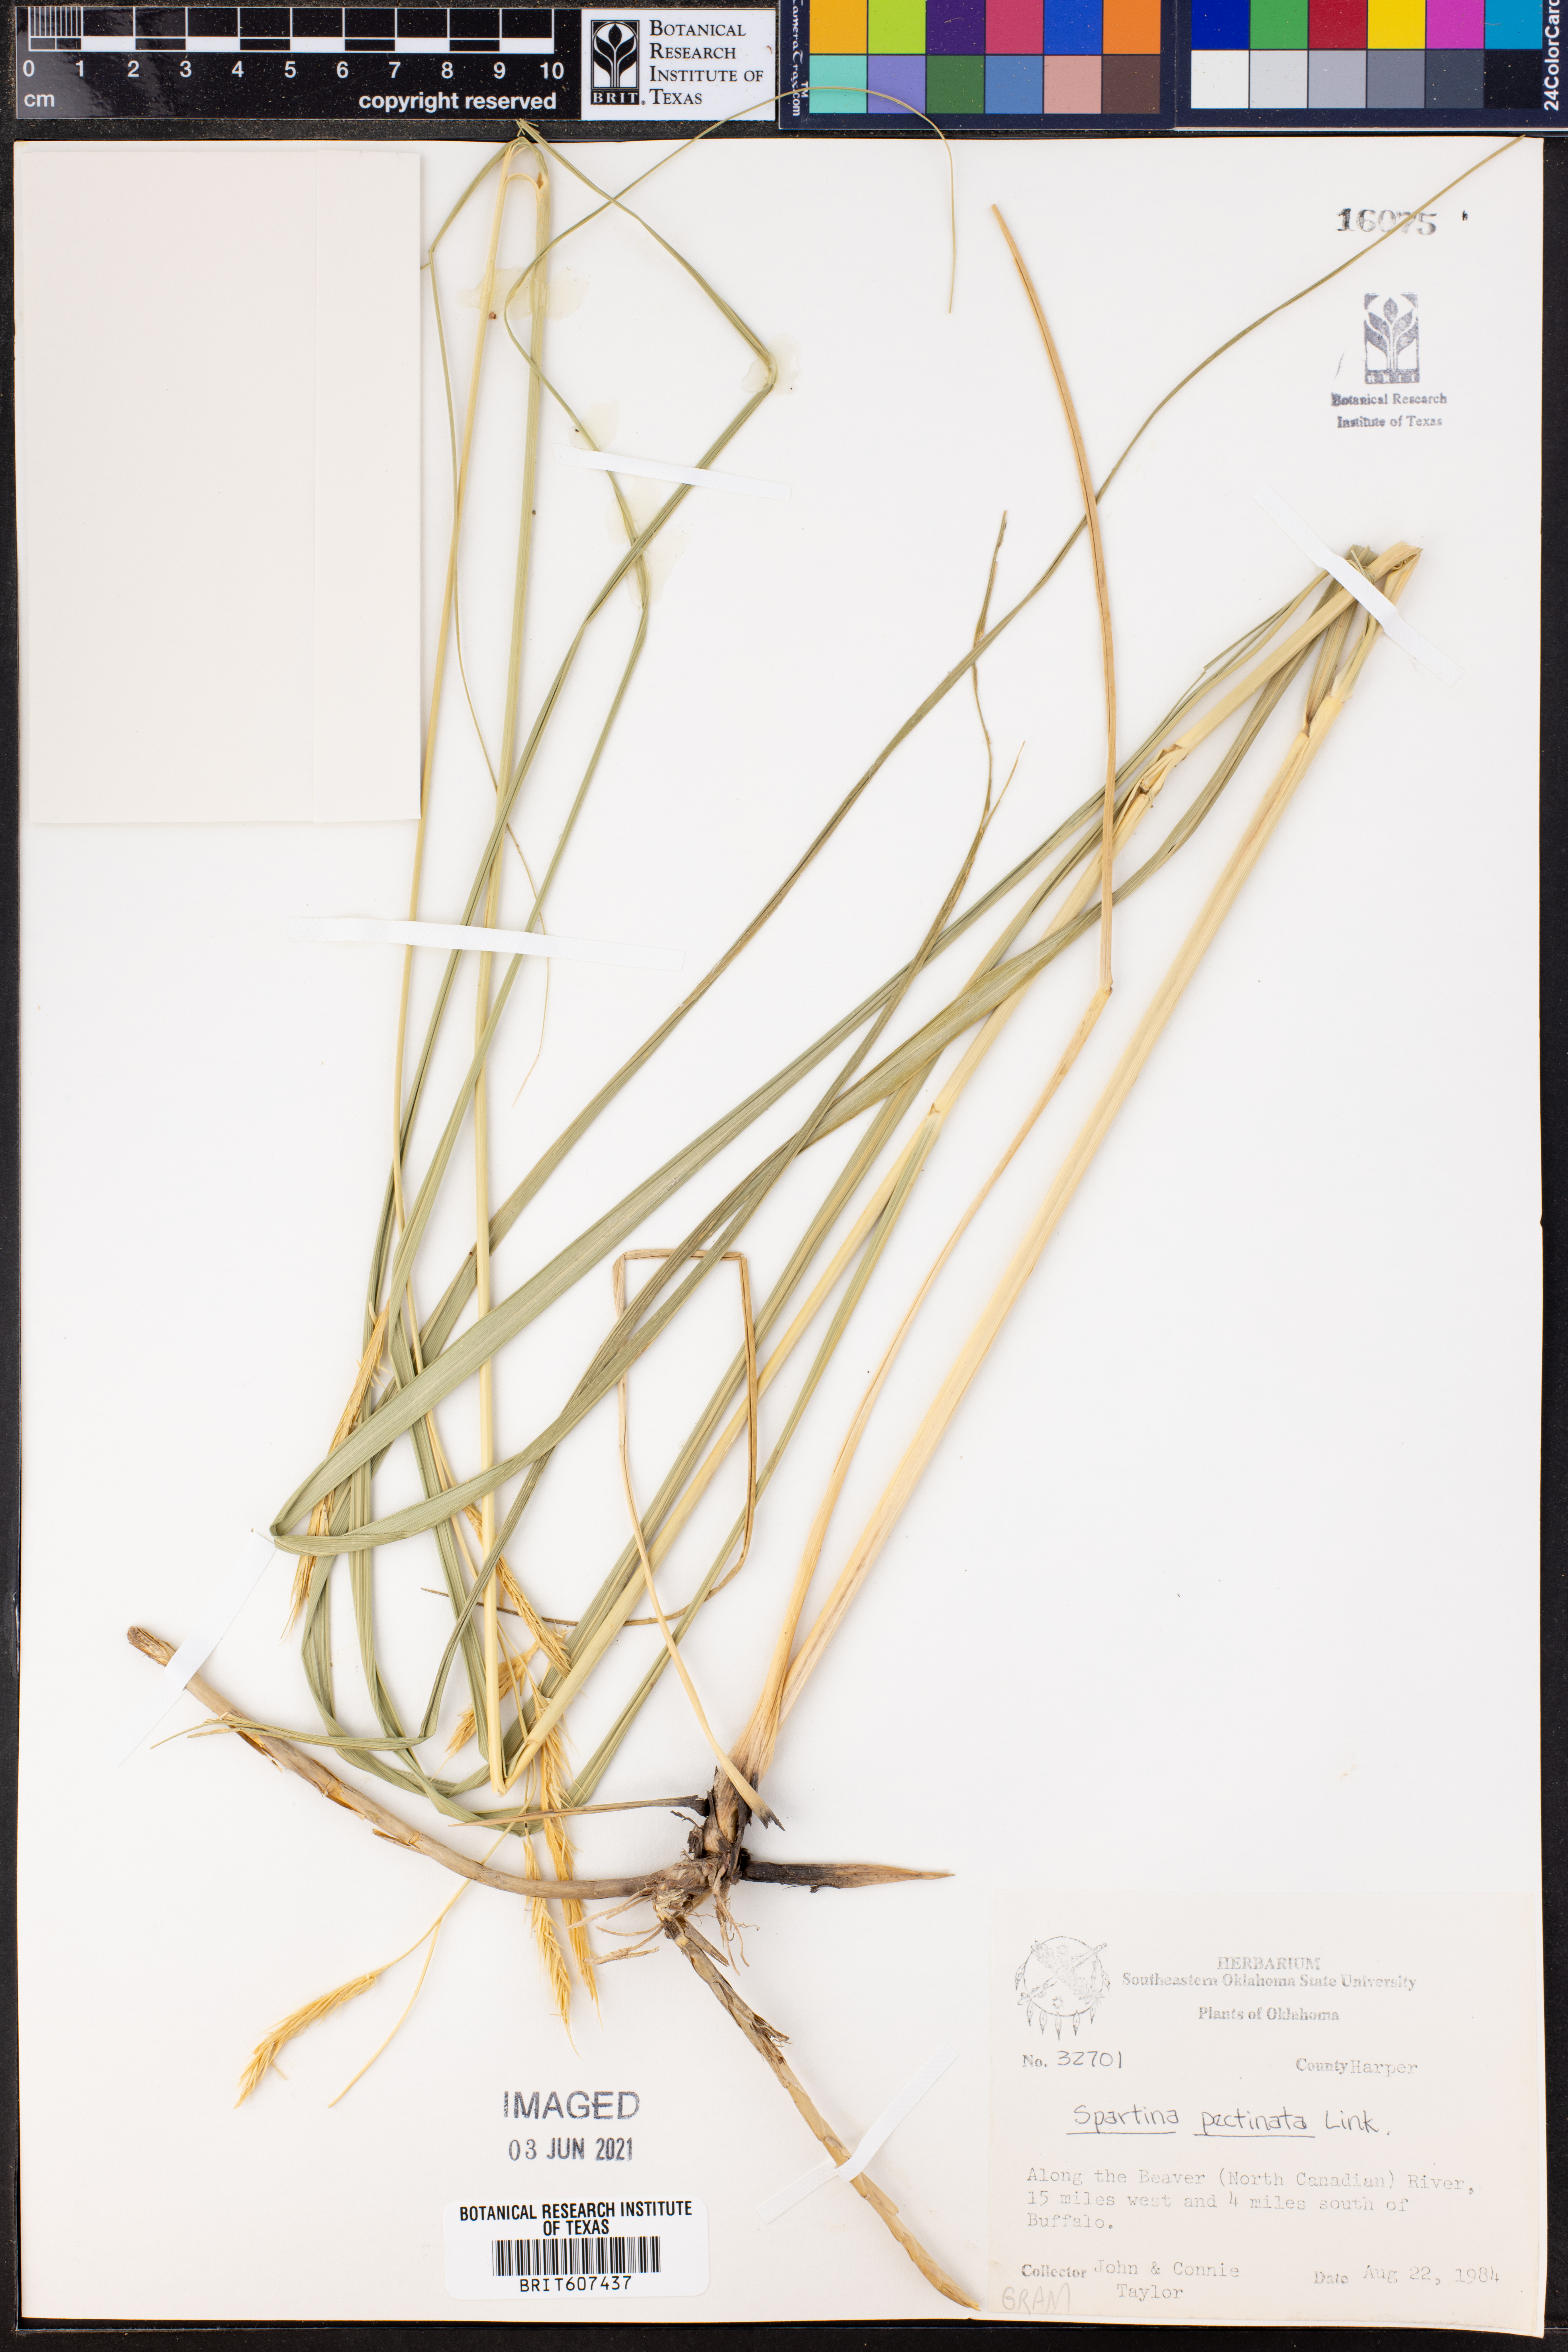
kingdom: Plantae
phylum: Tracheophyta
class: Liliopsida
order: Poales
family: Poaceae
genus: Sporobolus
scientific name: Sporobolus michauxianus
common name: Freshwater cordgrass
